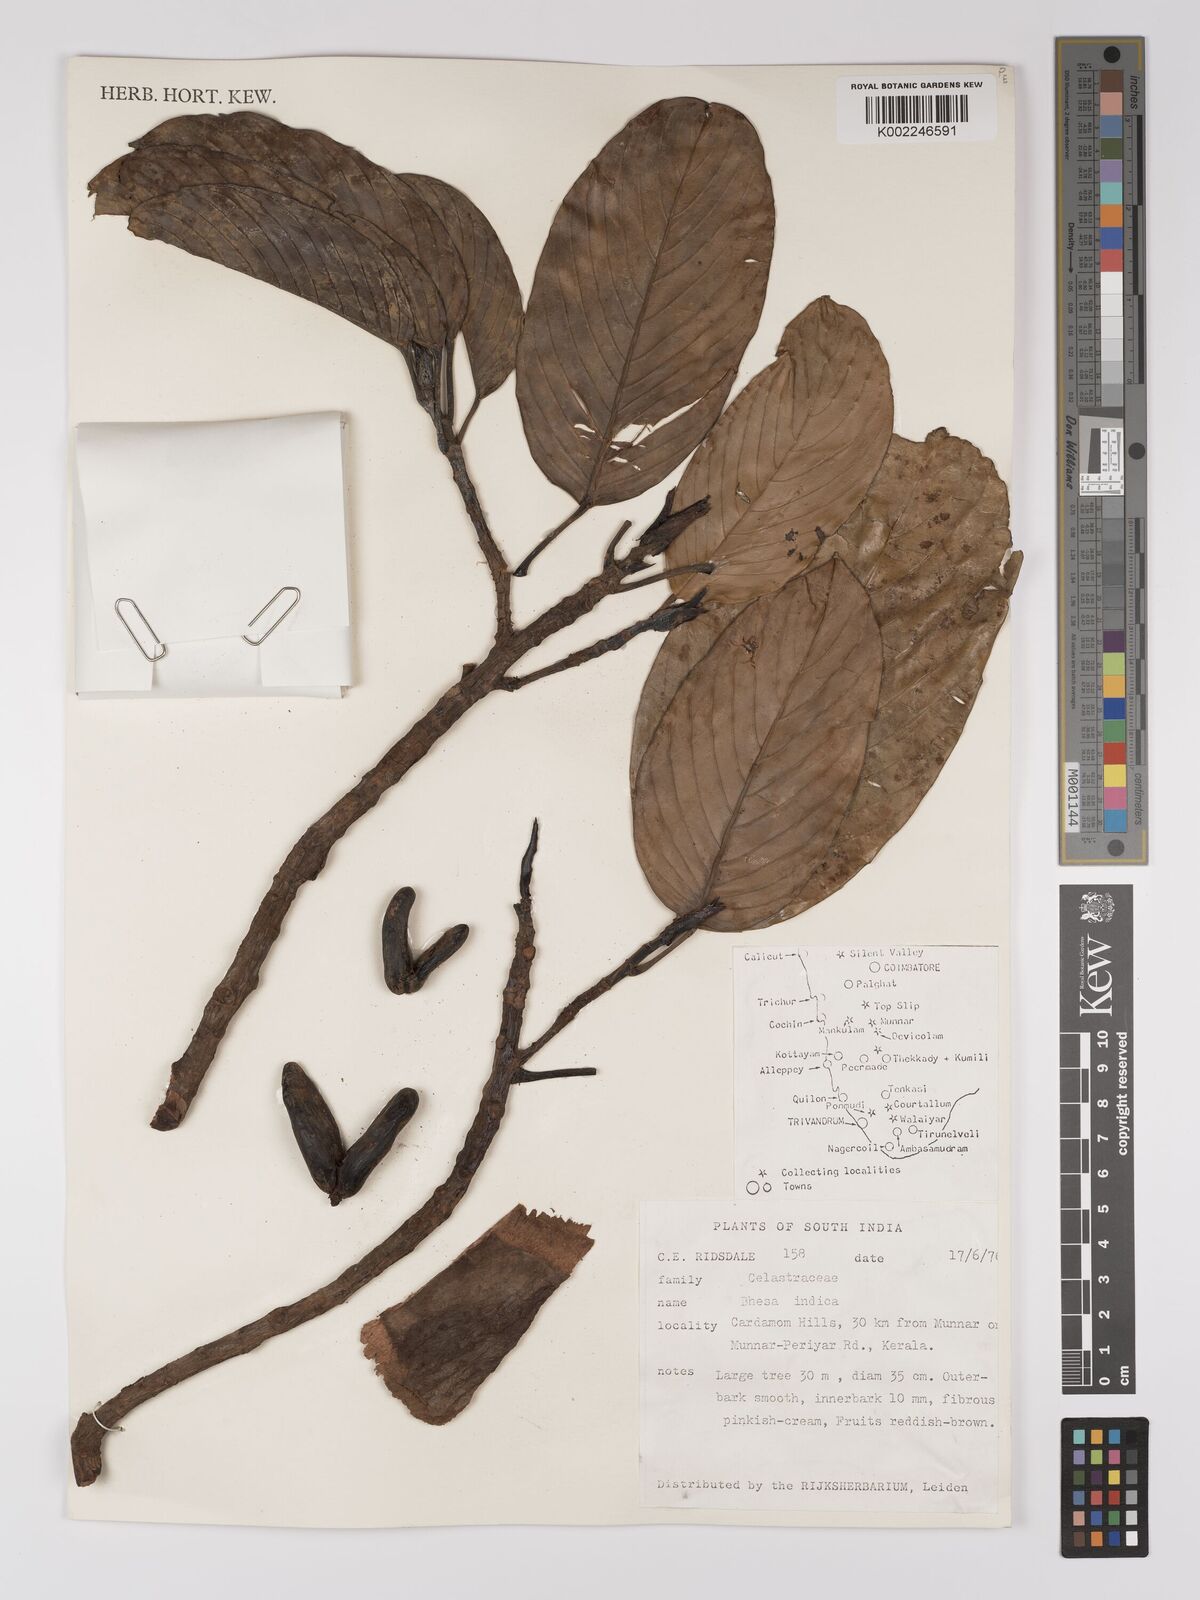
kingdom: Plantae
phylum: Tracheophyta
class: Magnoliopsida
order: Malpighiales
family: Centroplacaceae
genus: Bhesa
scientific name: Bhesa indica
